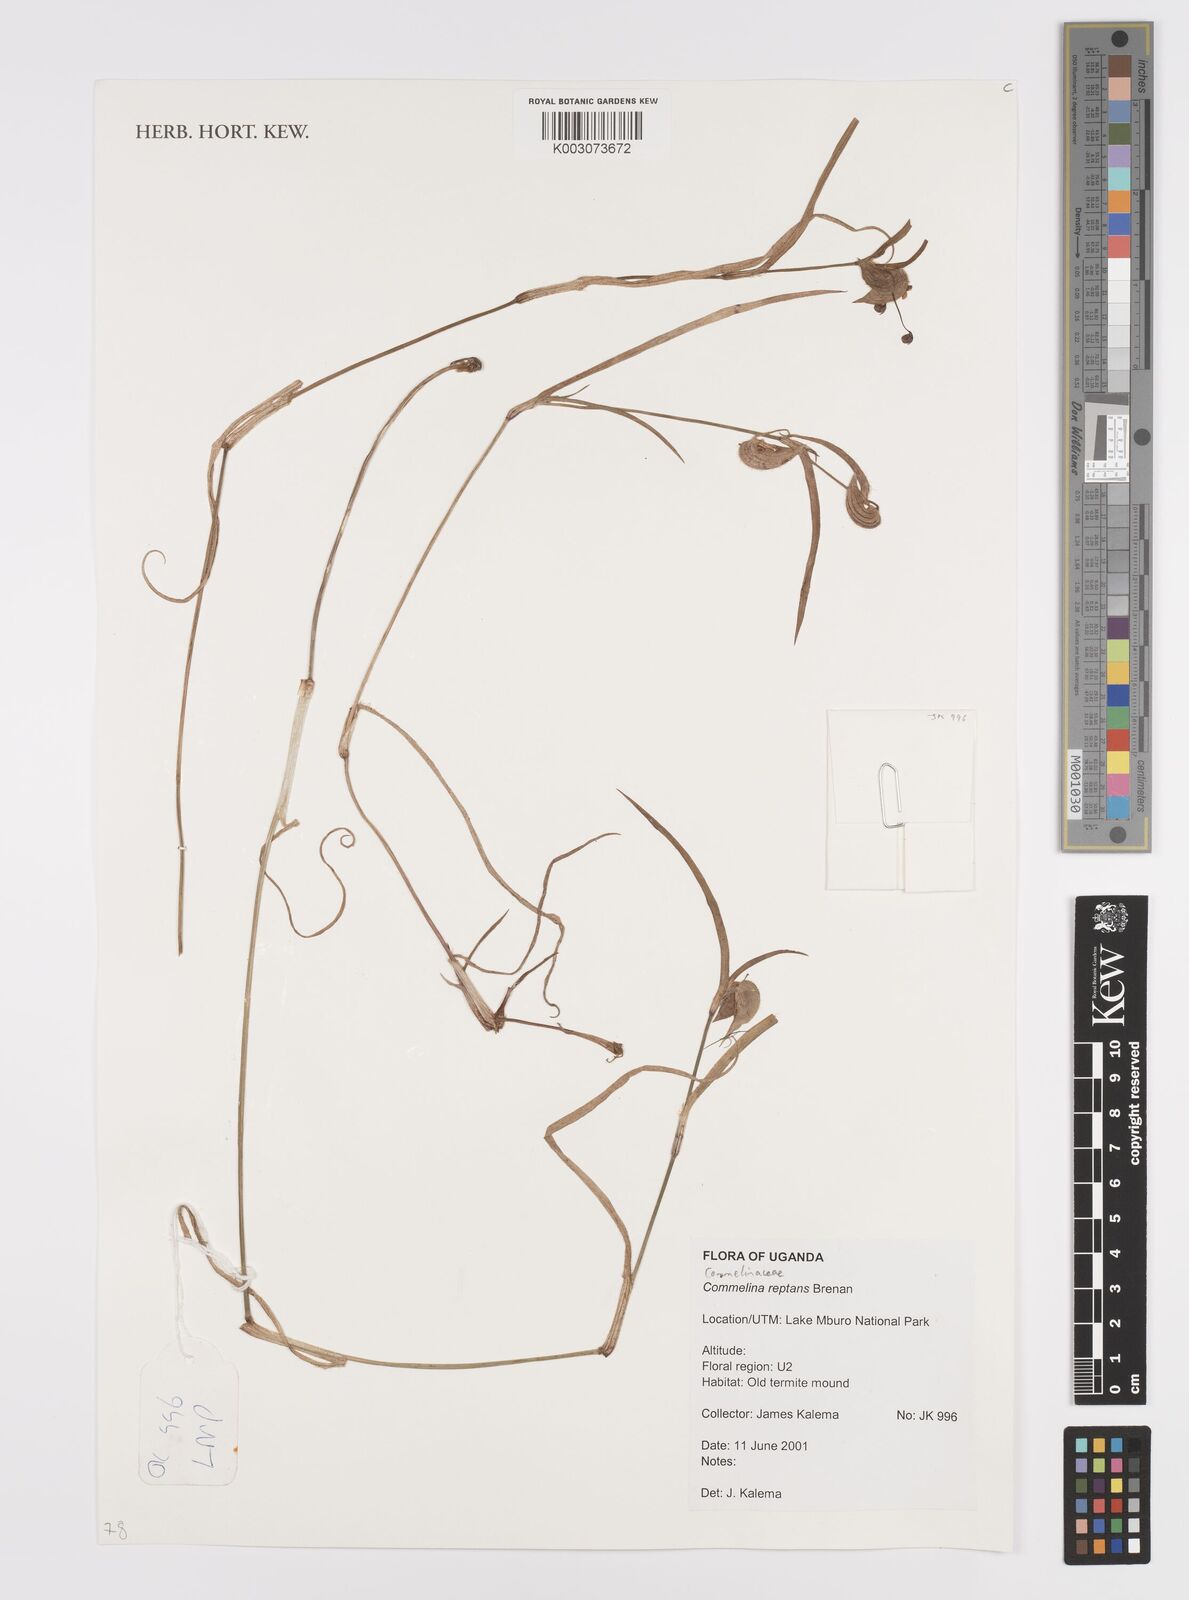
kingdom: Plantae
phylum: Tracheophyta
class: Liliopsida
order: Commelinales
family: Commelinaceae
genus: Commelina
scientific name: Commelina reptans
